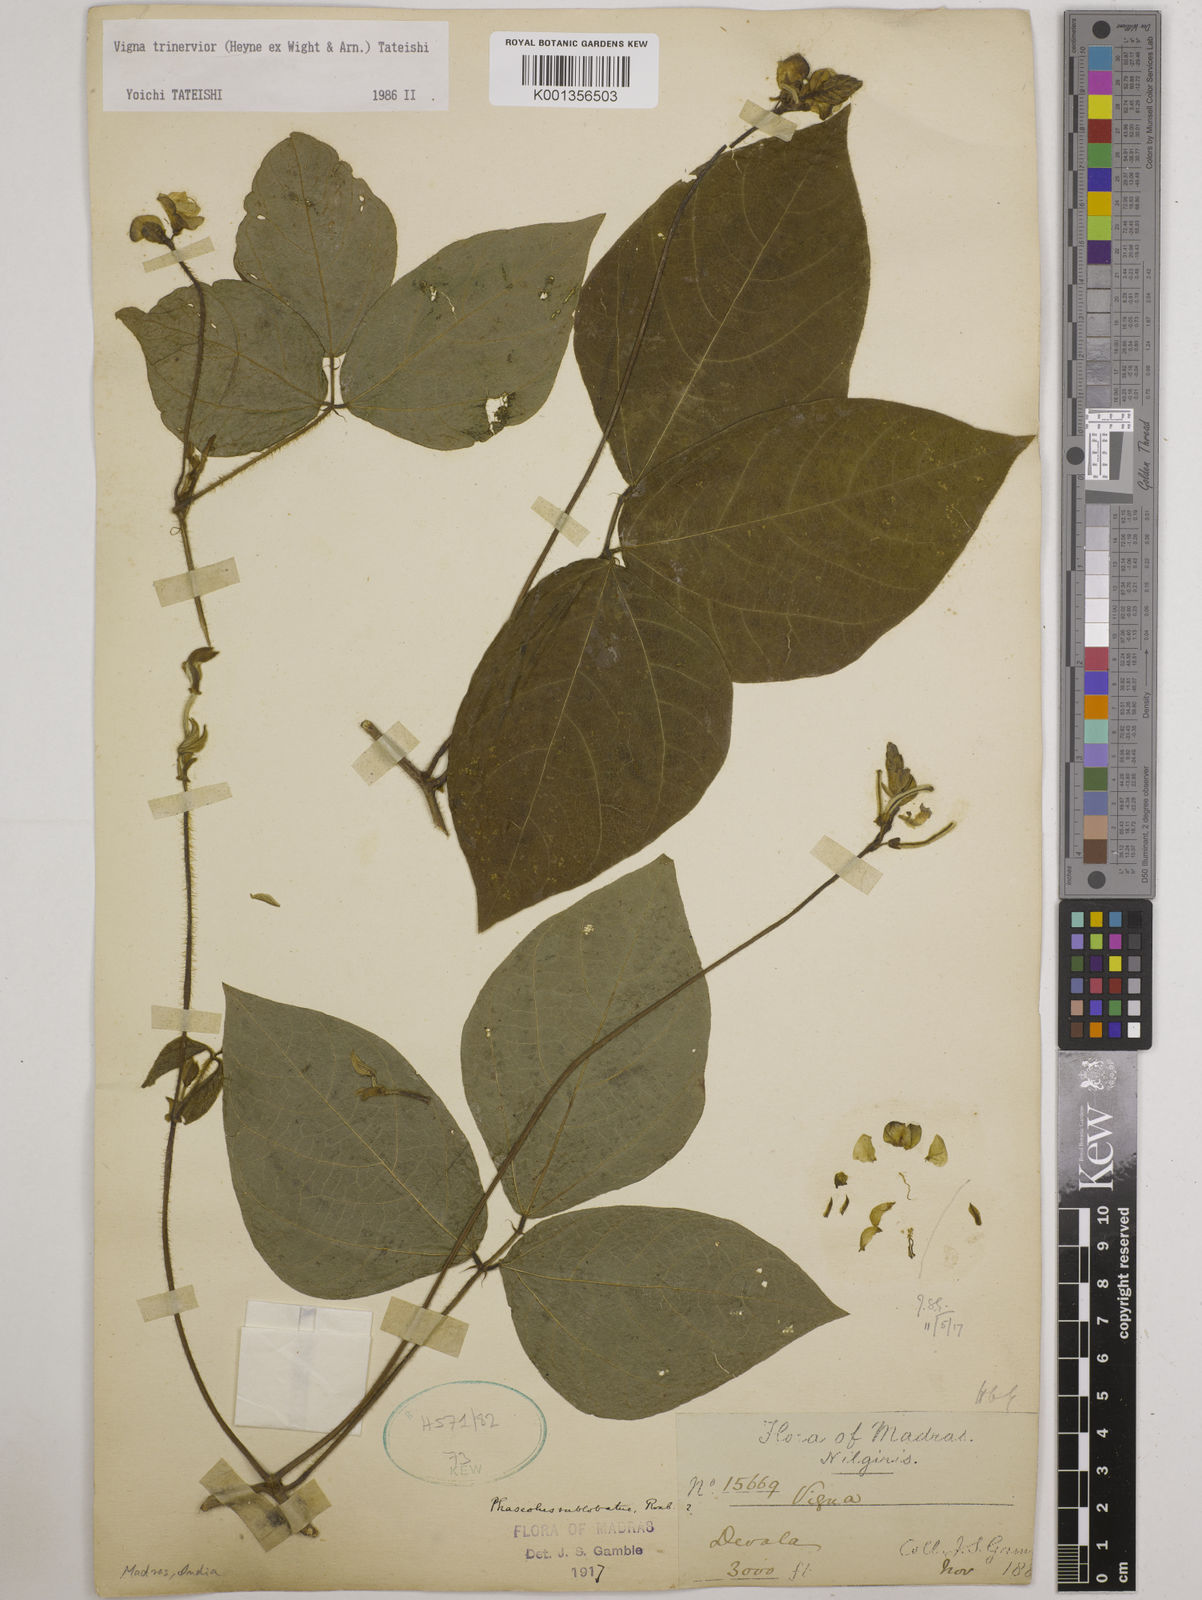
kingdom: Plantae
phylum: Tracheophyta
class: Magnoliopsida
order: Fabales
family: Fabaceae
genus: Vigna
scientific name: Vigna radiata
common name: Mung-bean
